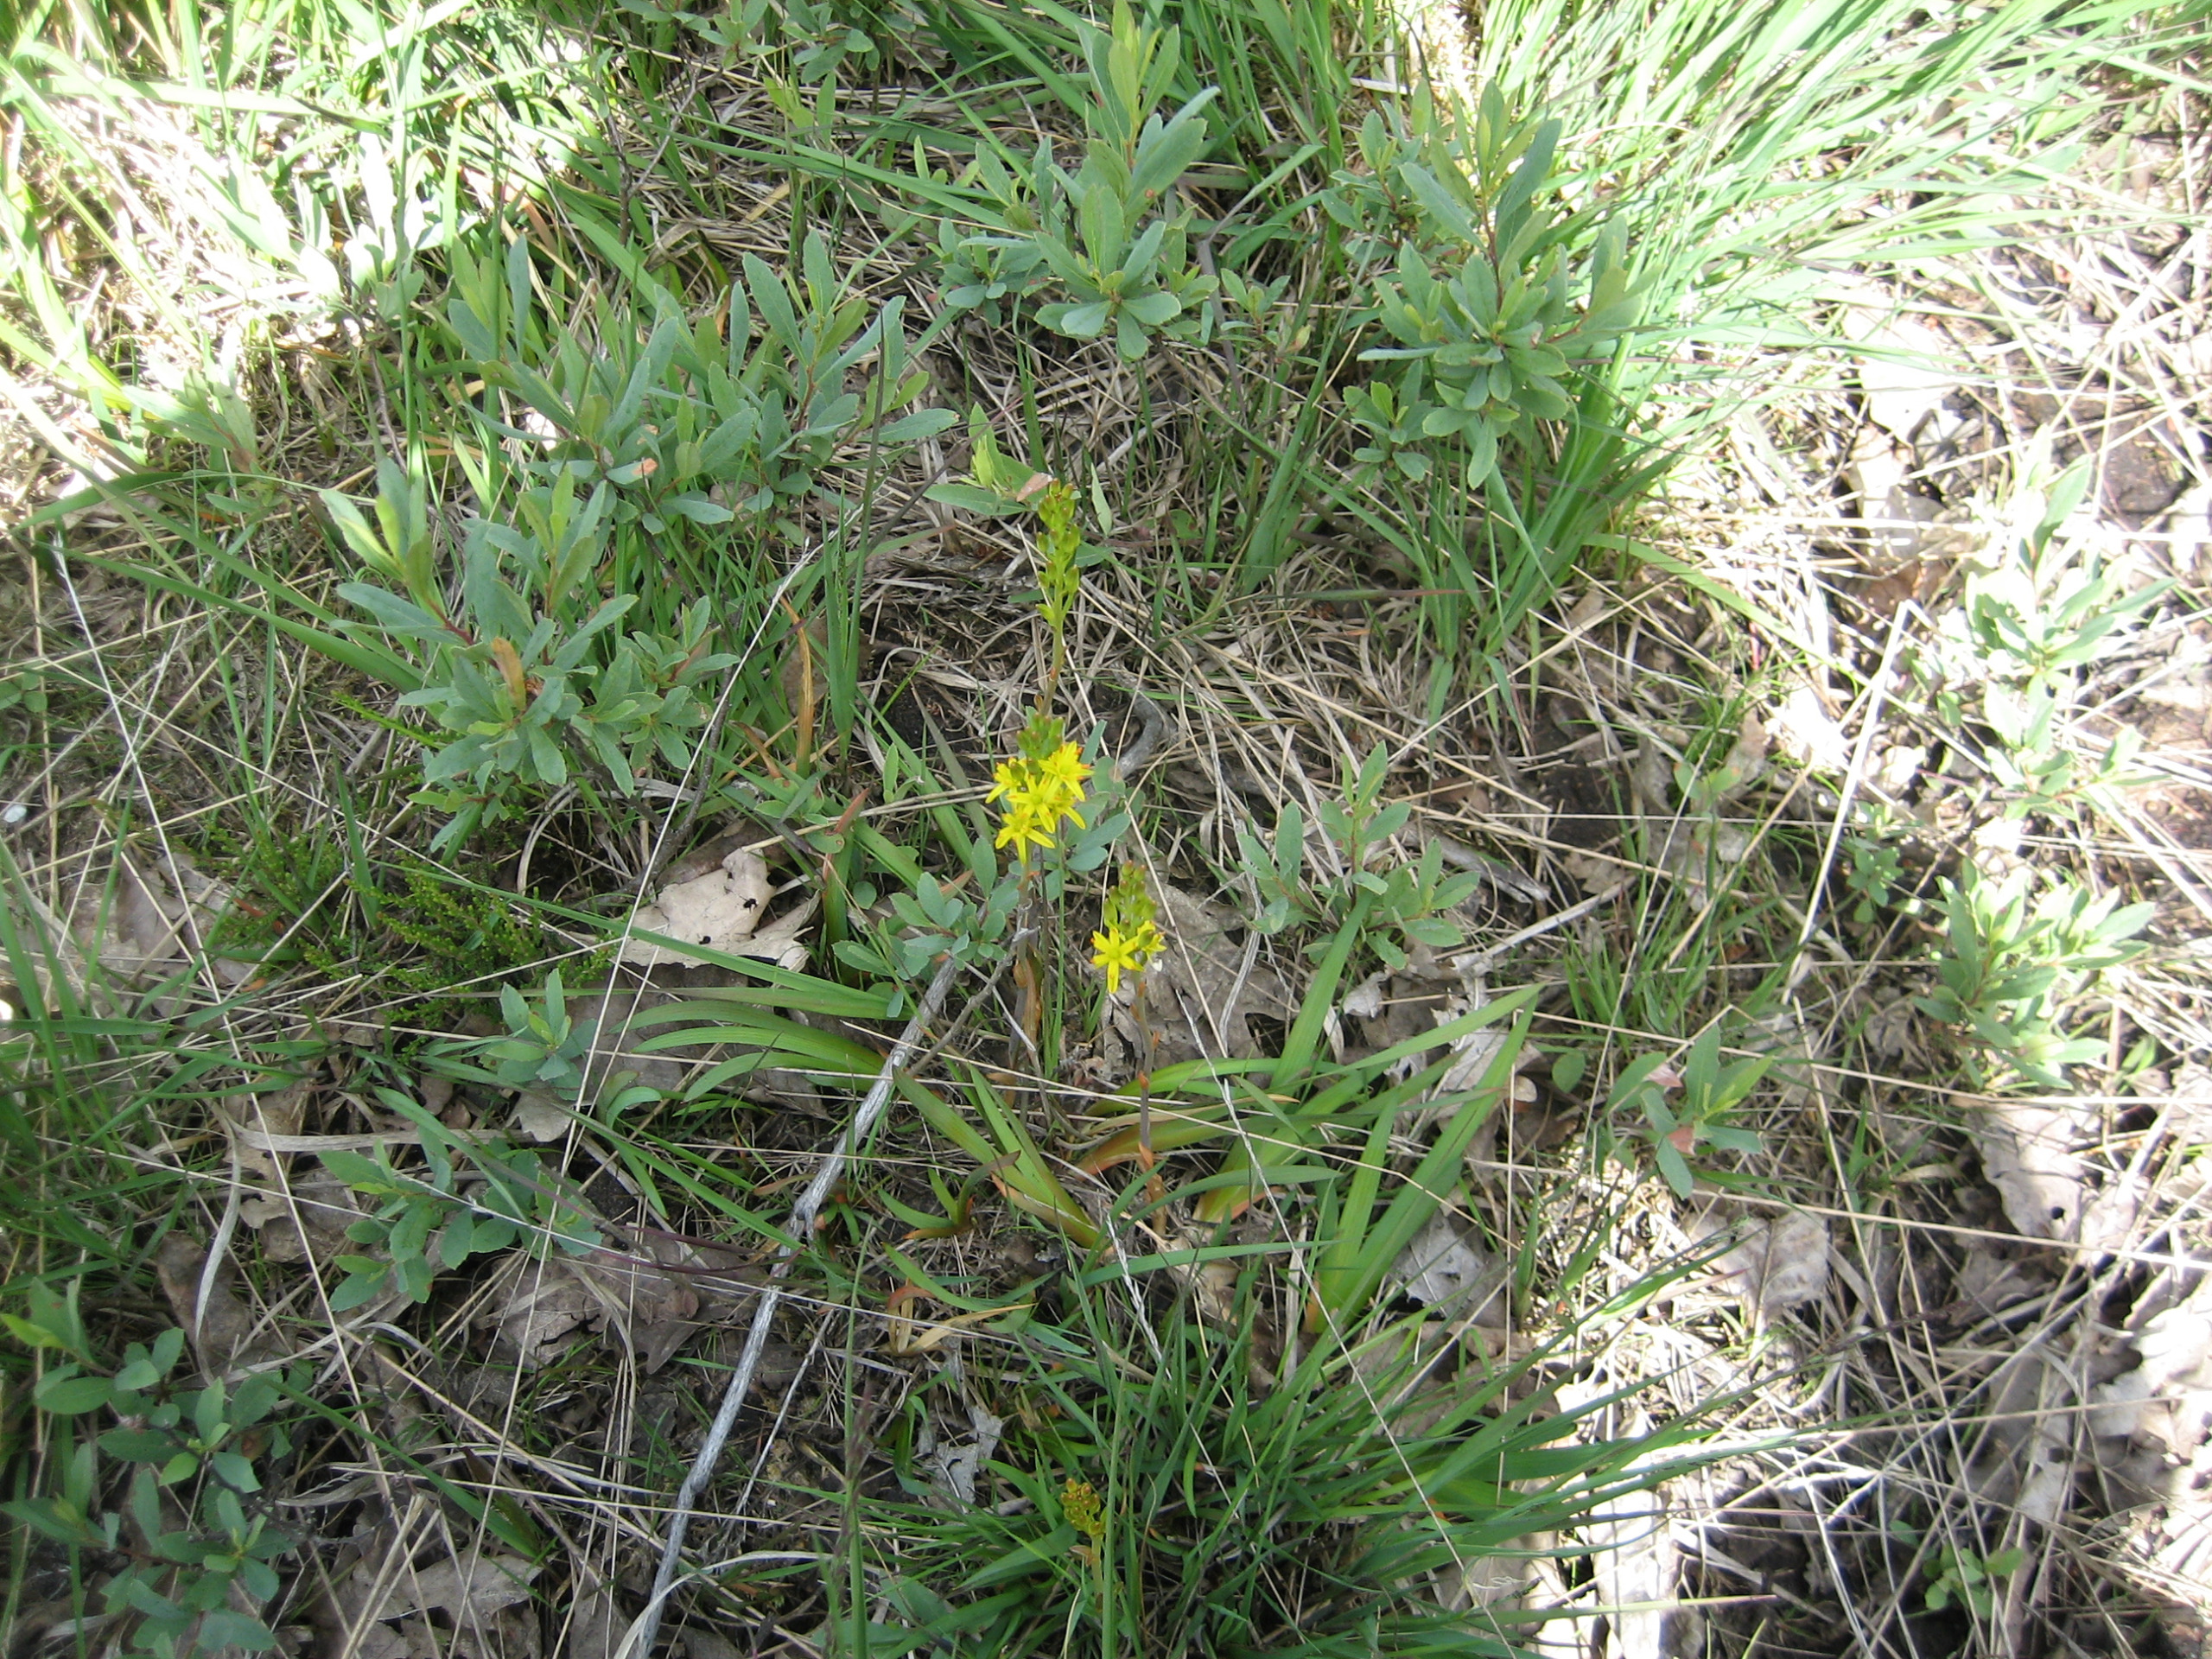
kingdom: Plantae
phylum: Tracheophyta
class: Liliopsida
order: Dioscoreales
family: Nartheciaceae
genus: Narthecium
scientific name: Narthecium ossifragum
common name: Benbræk
